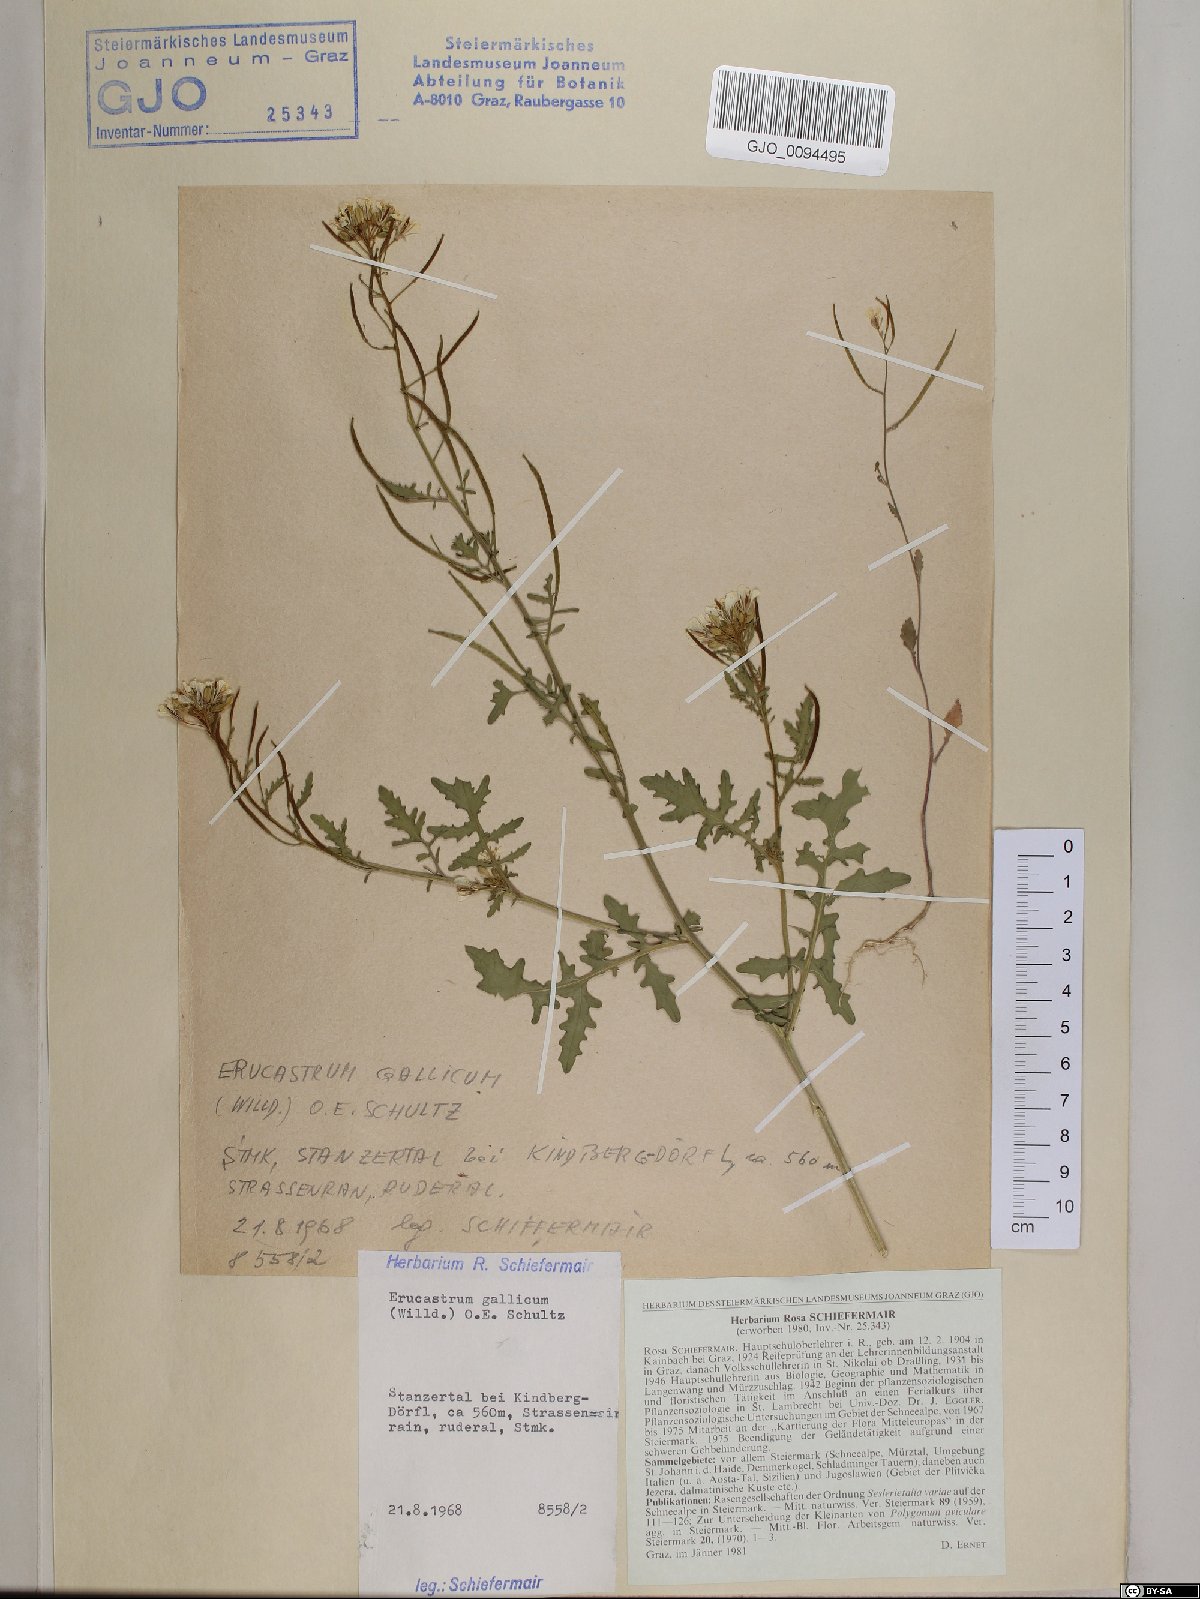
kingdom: Plantae
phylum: Tracheophyta
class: Magnoliopsida
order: Brassicales
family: Brassicaceae
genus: Erucastrum
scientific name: Erucastrum gallicum
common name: Hairy rocket
